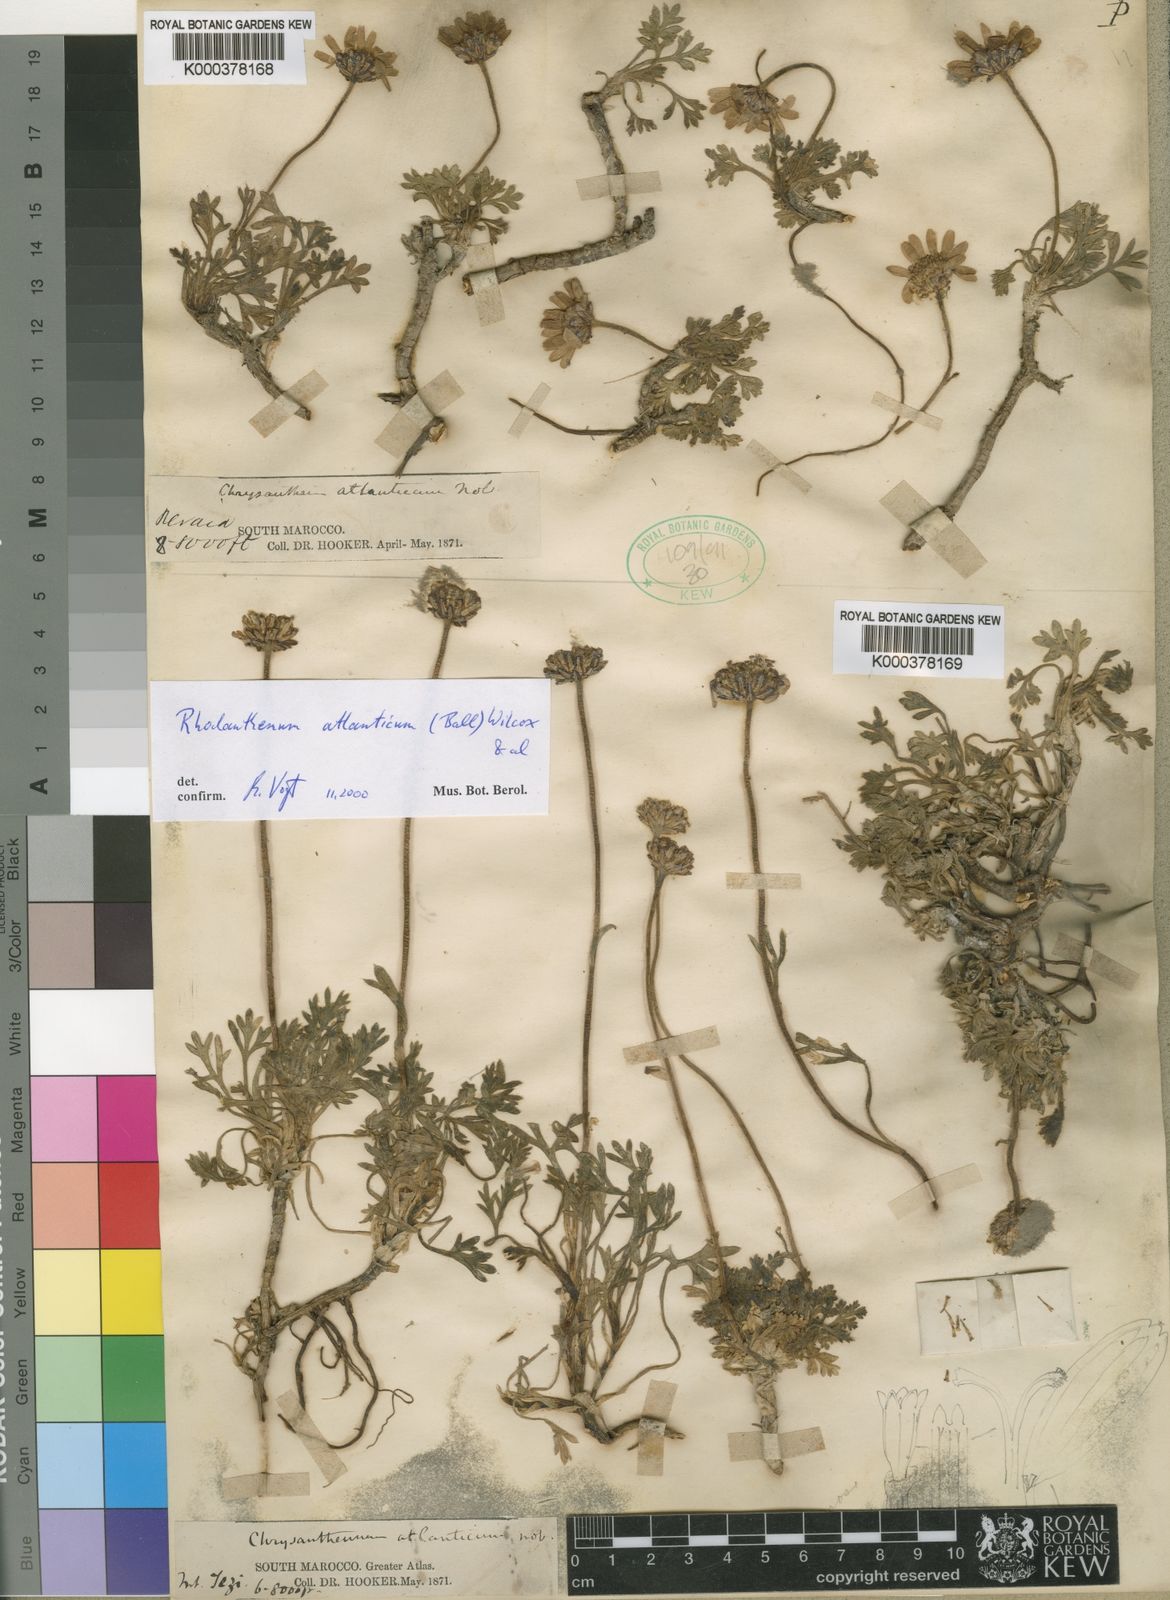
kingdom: Plantae
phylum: Tracheophyta
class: Magnoliopsida
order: Asterales
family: Asteraceae
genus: Rhodanthemum
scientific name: Rhodanthemum
